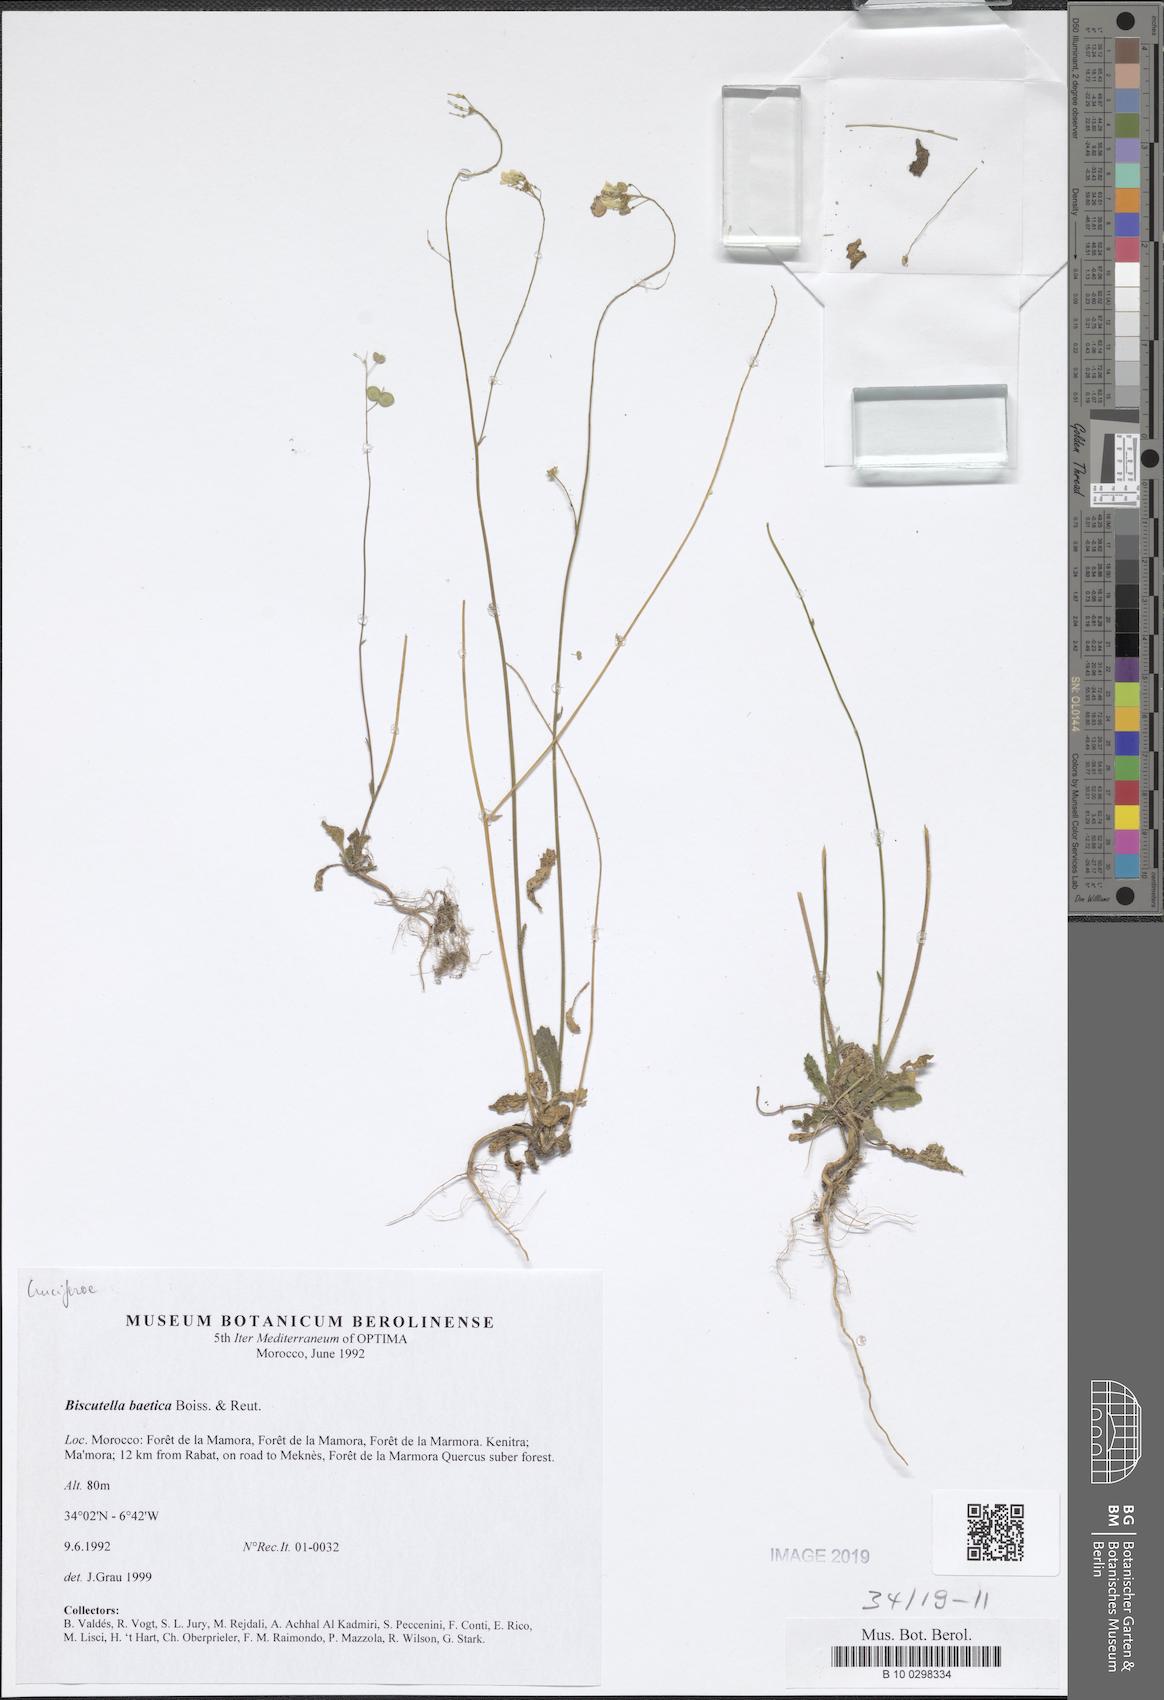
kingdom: Plantae
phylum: Tracheophyta
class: Magnoliopsida
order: Brassicales
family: Brassicaceae
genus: Biscutella
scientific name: Biscutella baetica
